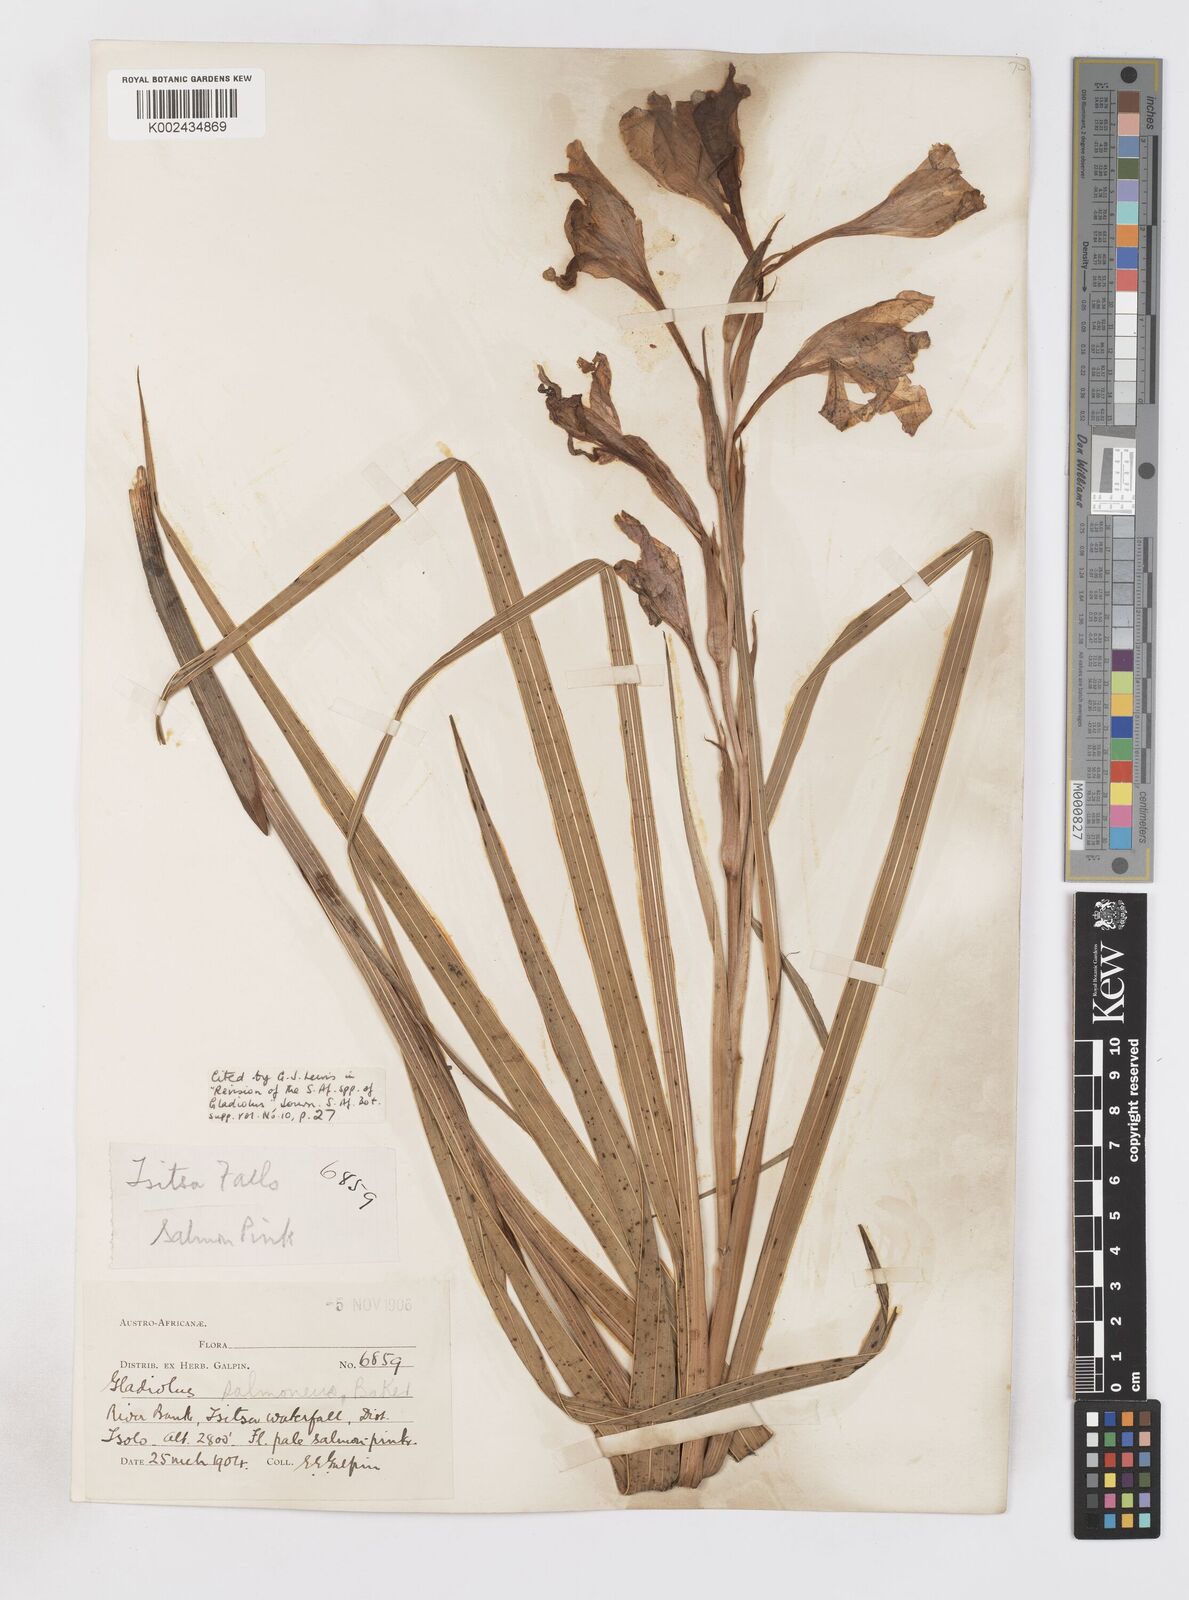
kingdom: Plantae
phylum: Tracheophyta
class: Liliopsida
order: Asparagales
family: Iridaceae
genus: Gladiolus
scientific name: Gladiolus oppositiflorus
